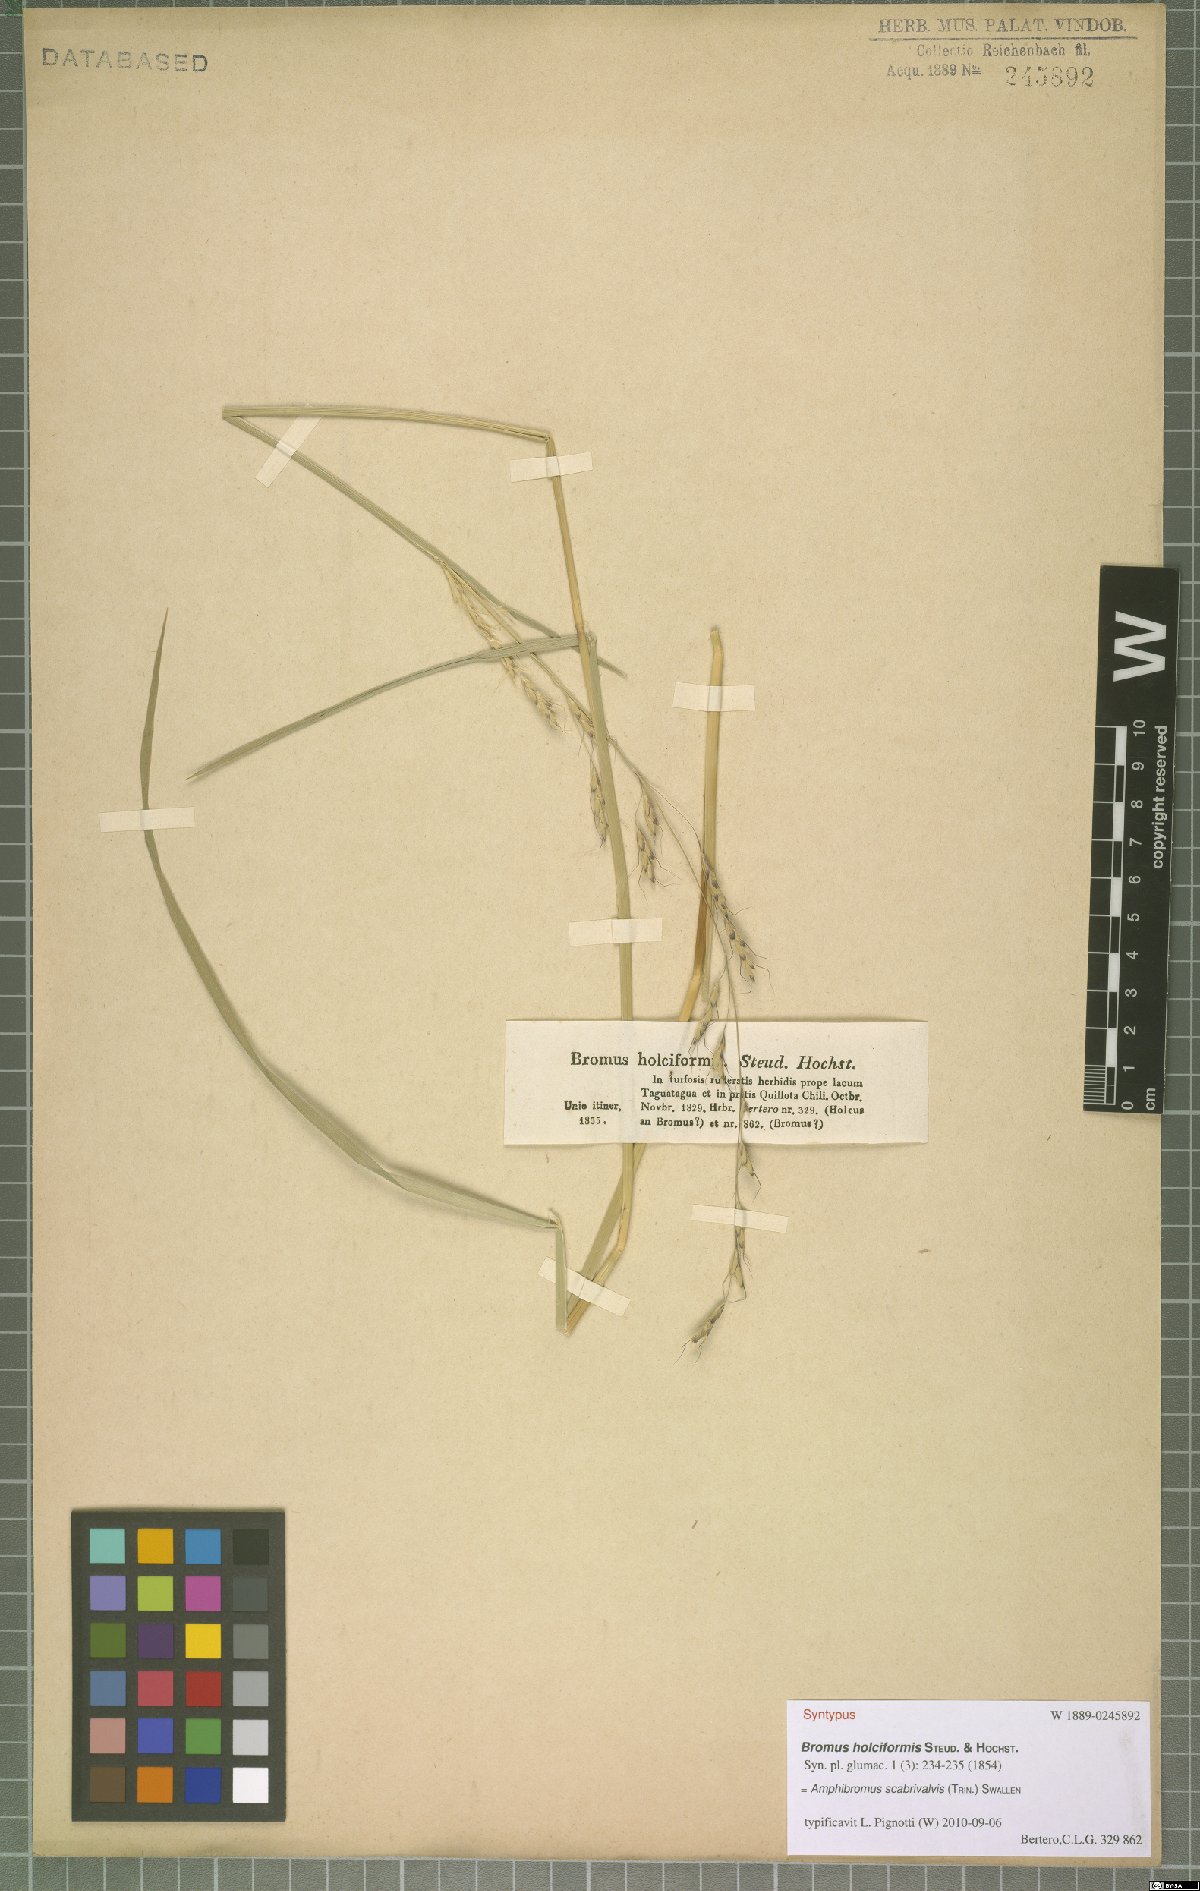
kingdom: Plantae
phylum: Tracheophyta
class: Liliopsida
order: Poales
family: Poaceae
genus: Amphibromus
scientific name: Amphibromus scabrivalvis
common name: Swamp wallaby grass
